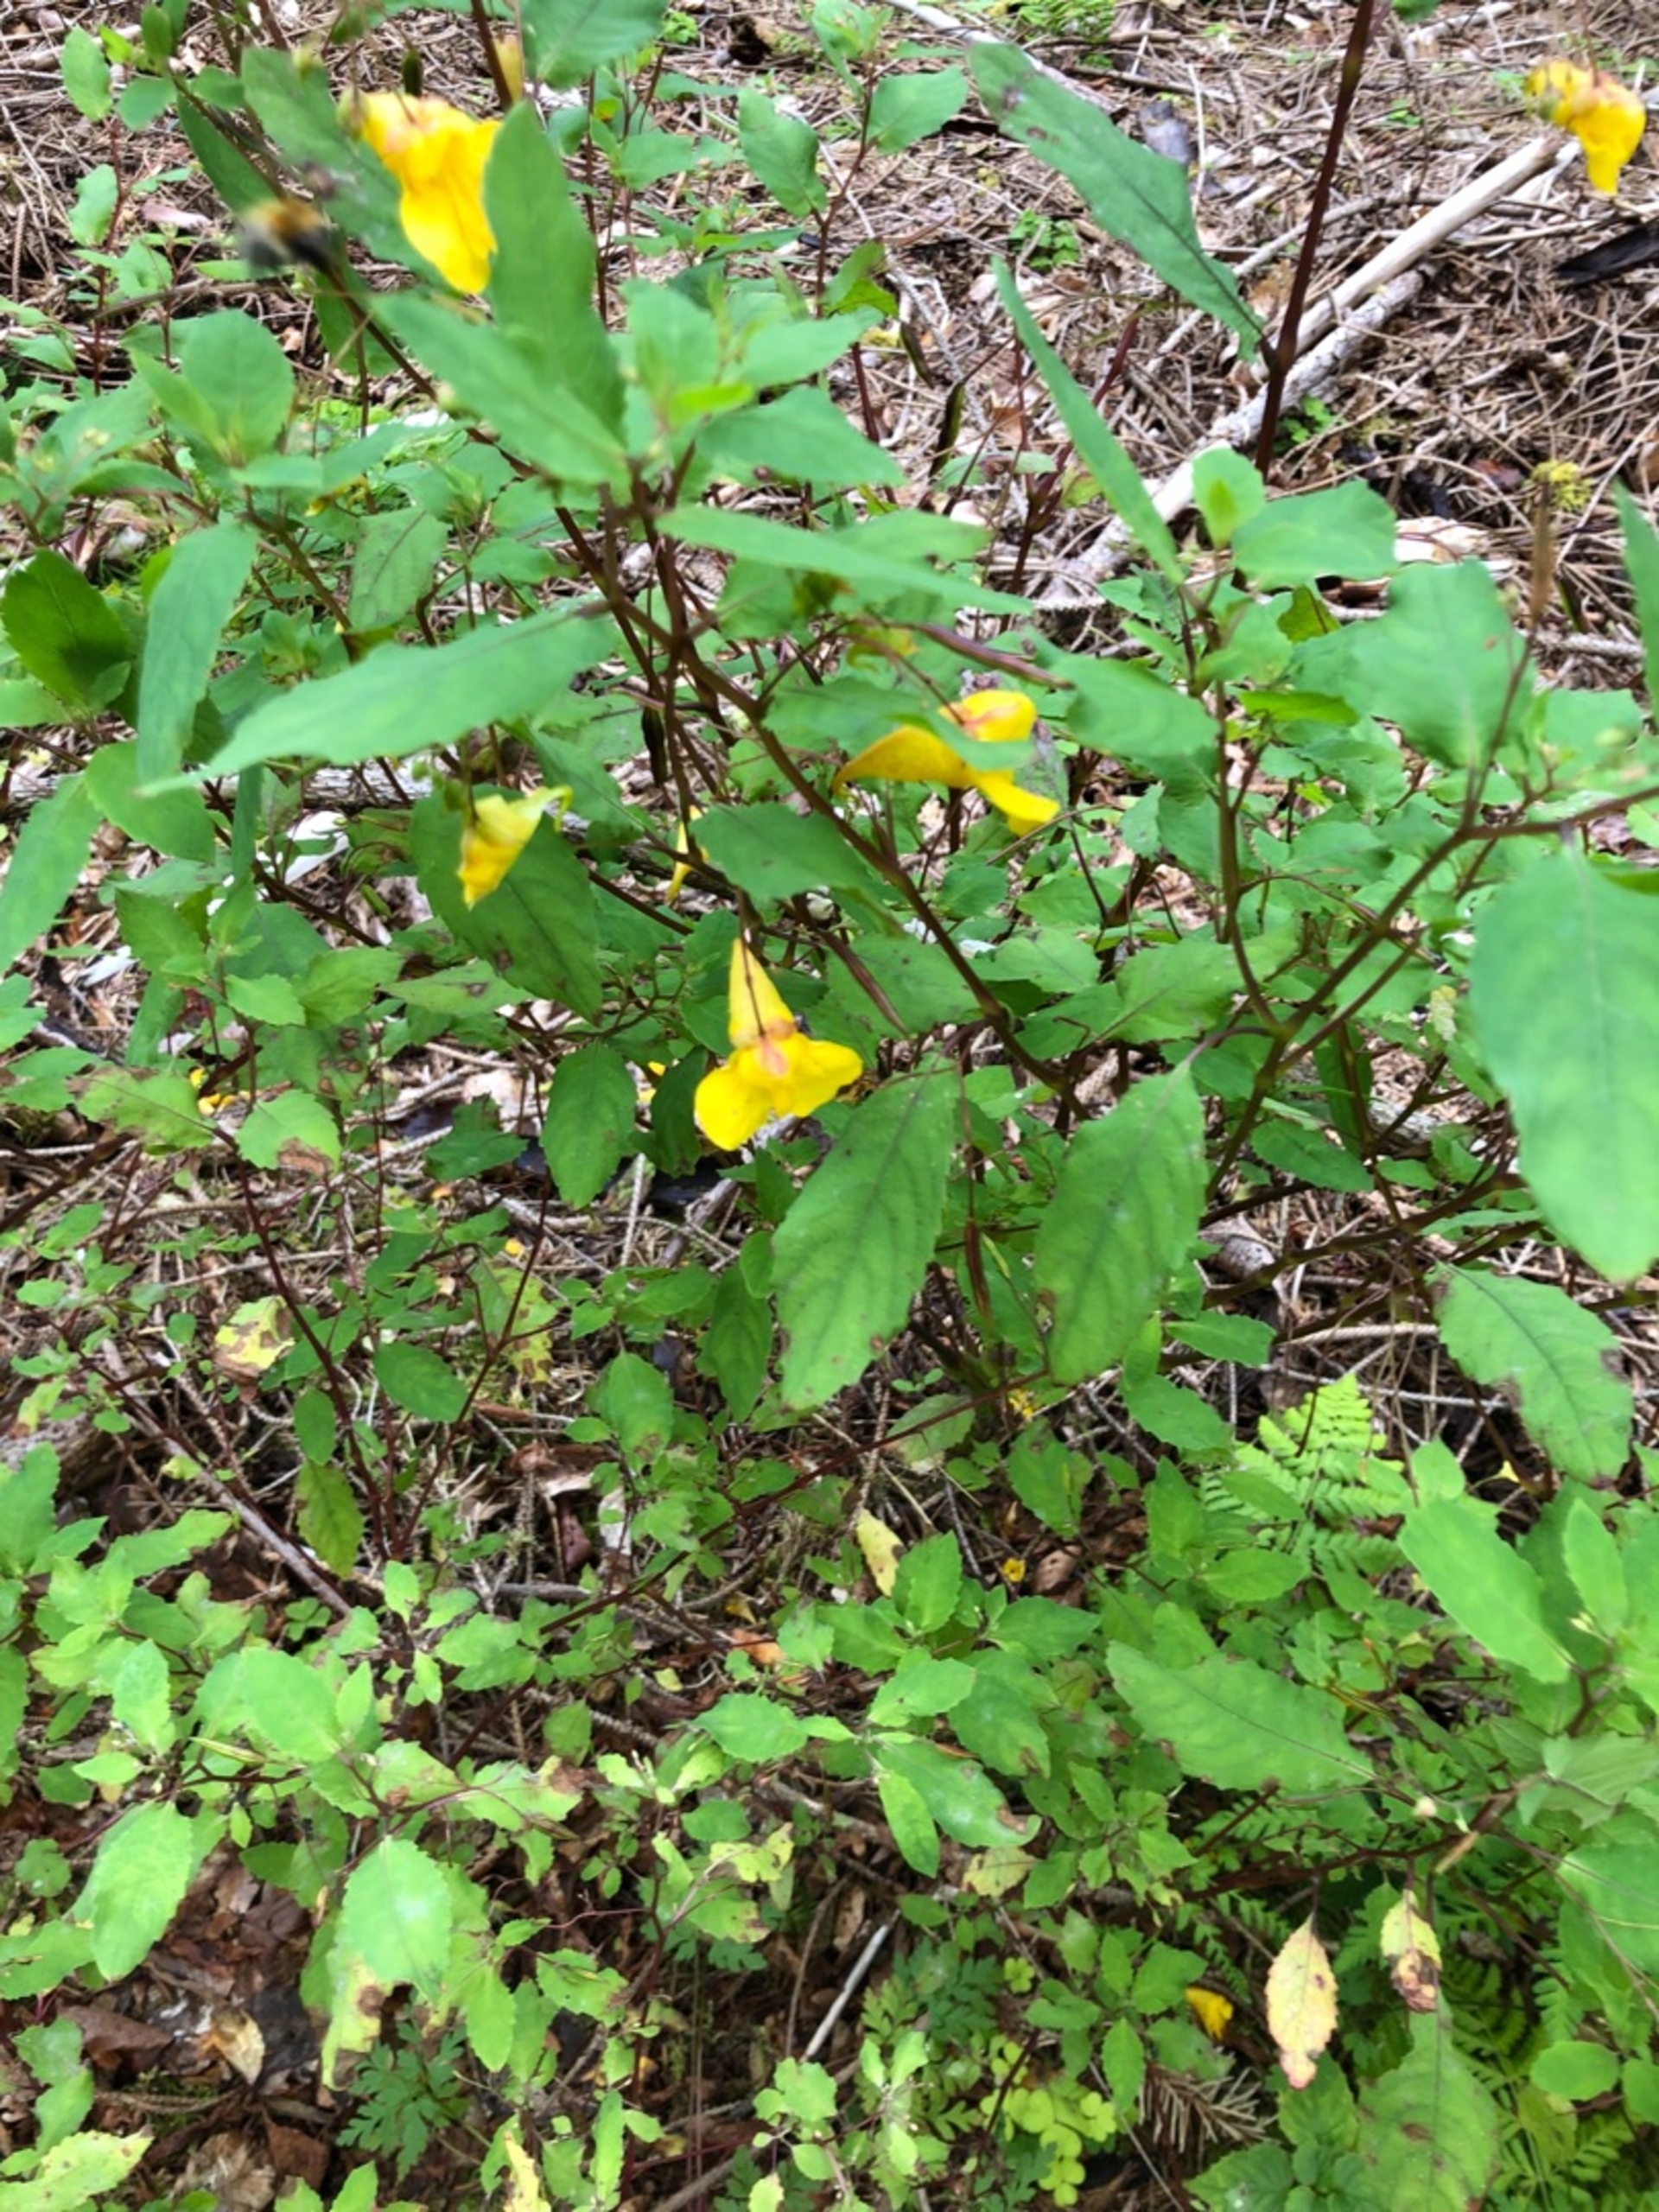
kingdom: Plantae
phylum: Tracheophyta
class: Magnoliopsida
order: Ericales
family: Balsaminaceae
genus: Impatiens
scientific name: Impatiens noli-tangere
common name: Spring-balsamin
